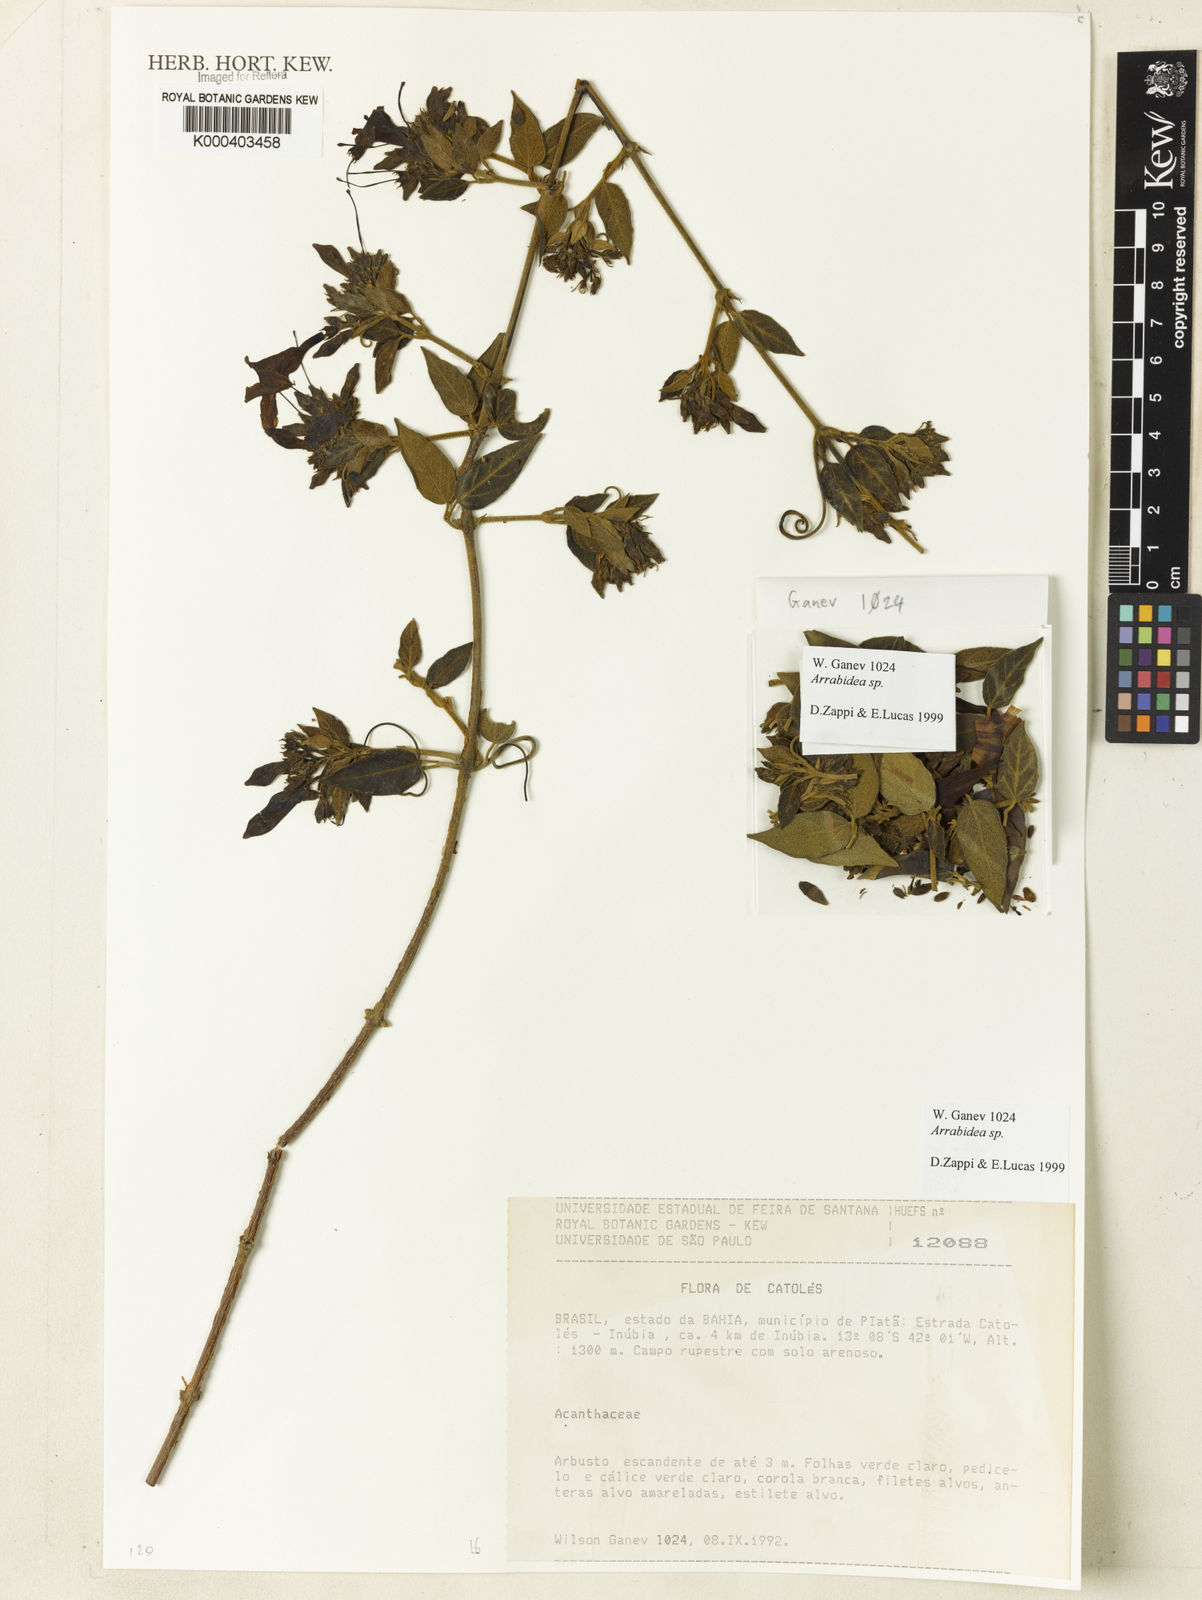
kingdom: Plantae
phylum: Tracheophyta
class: Magnoliopsida
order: Rosales
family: Rhamnaceae
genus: Arrabidaea
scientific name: Arrabidaea
